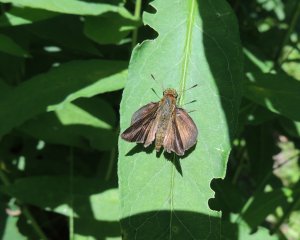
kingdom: Animalia
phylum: Arthropoda
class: Insecta
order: Lepidoptera
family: Hesperiidae
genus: Euphyes
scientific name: Euphyes vestris
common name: Dun Skipper
